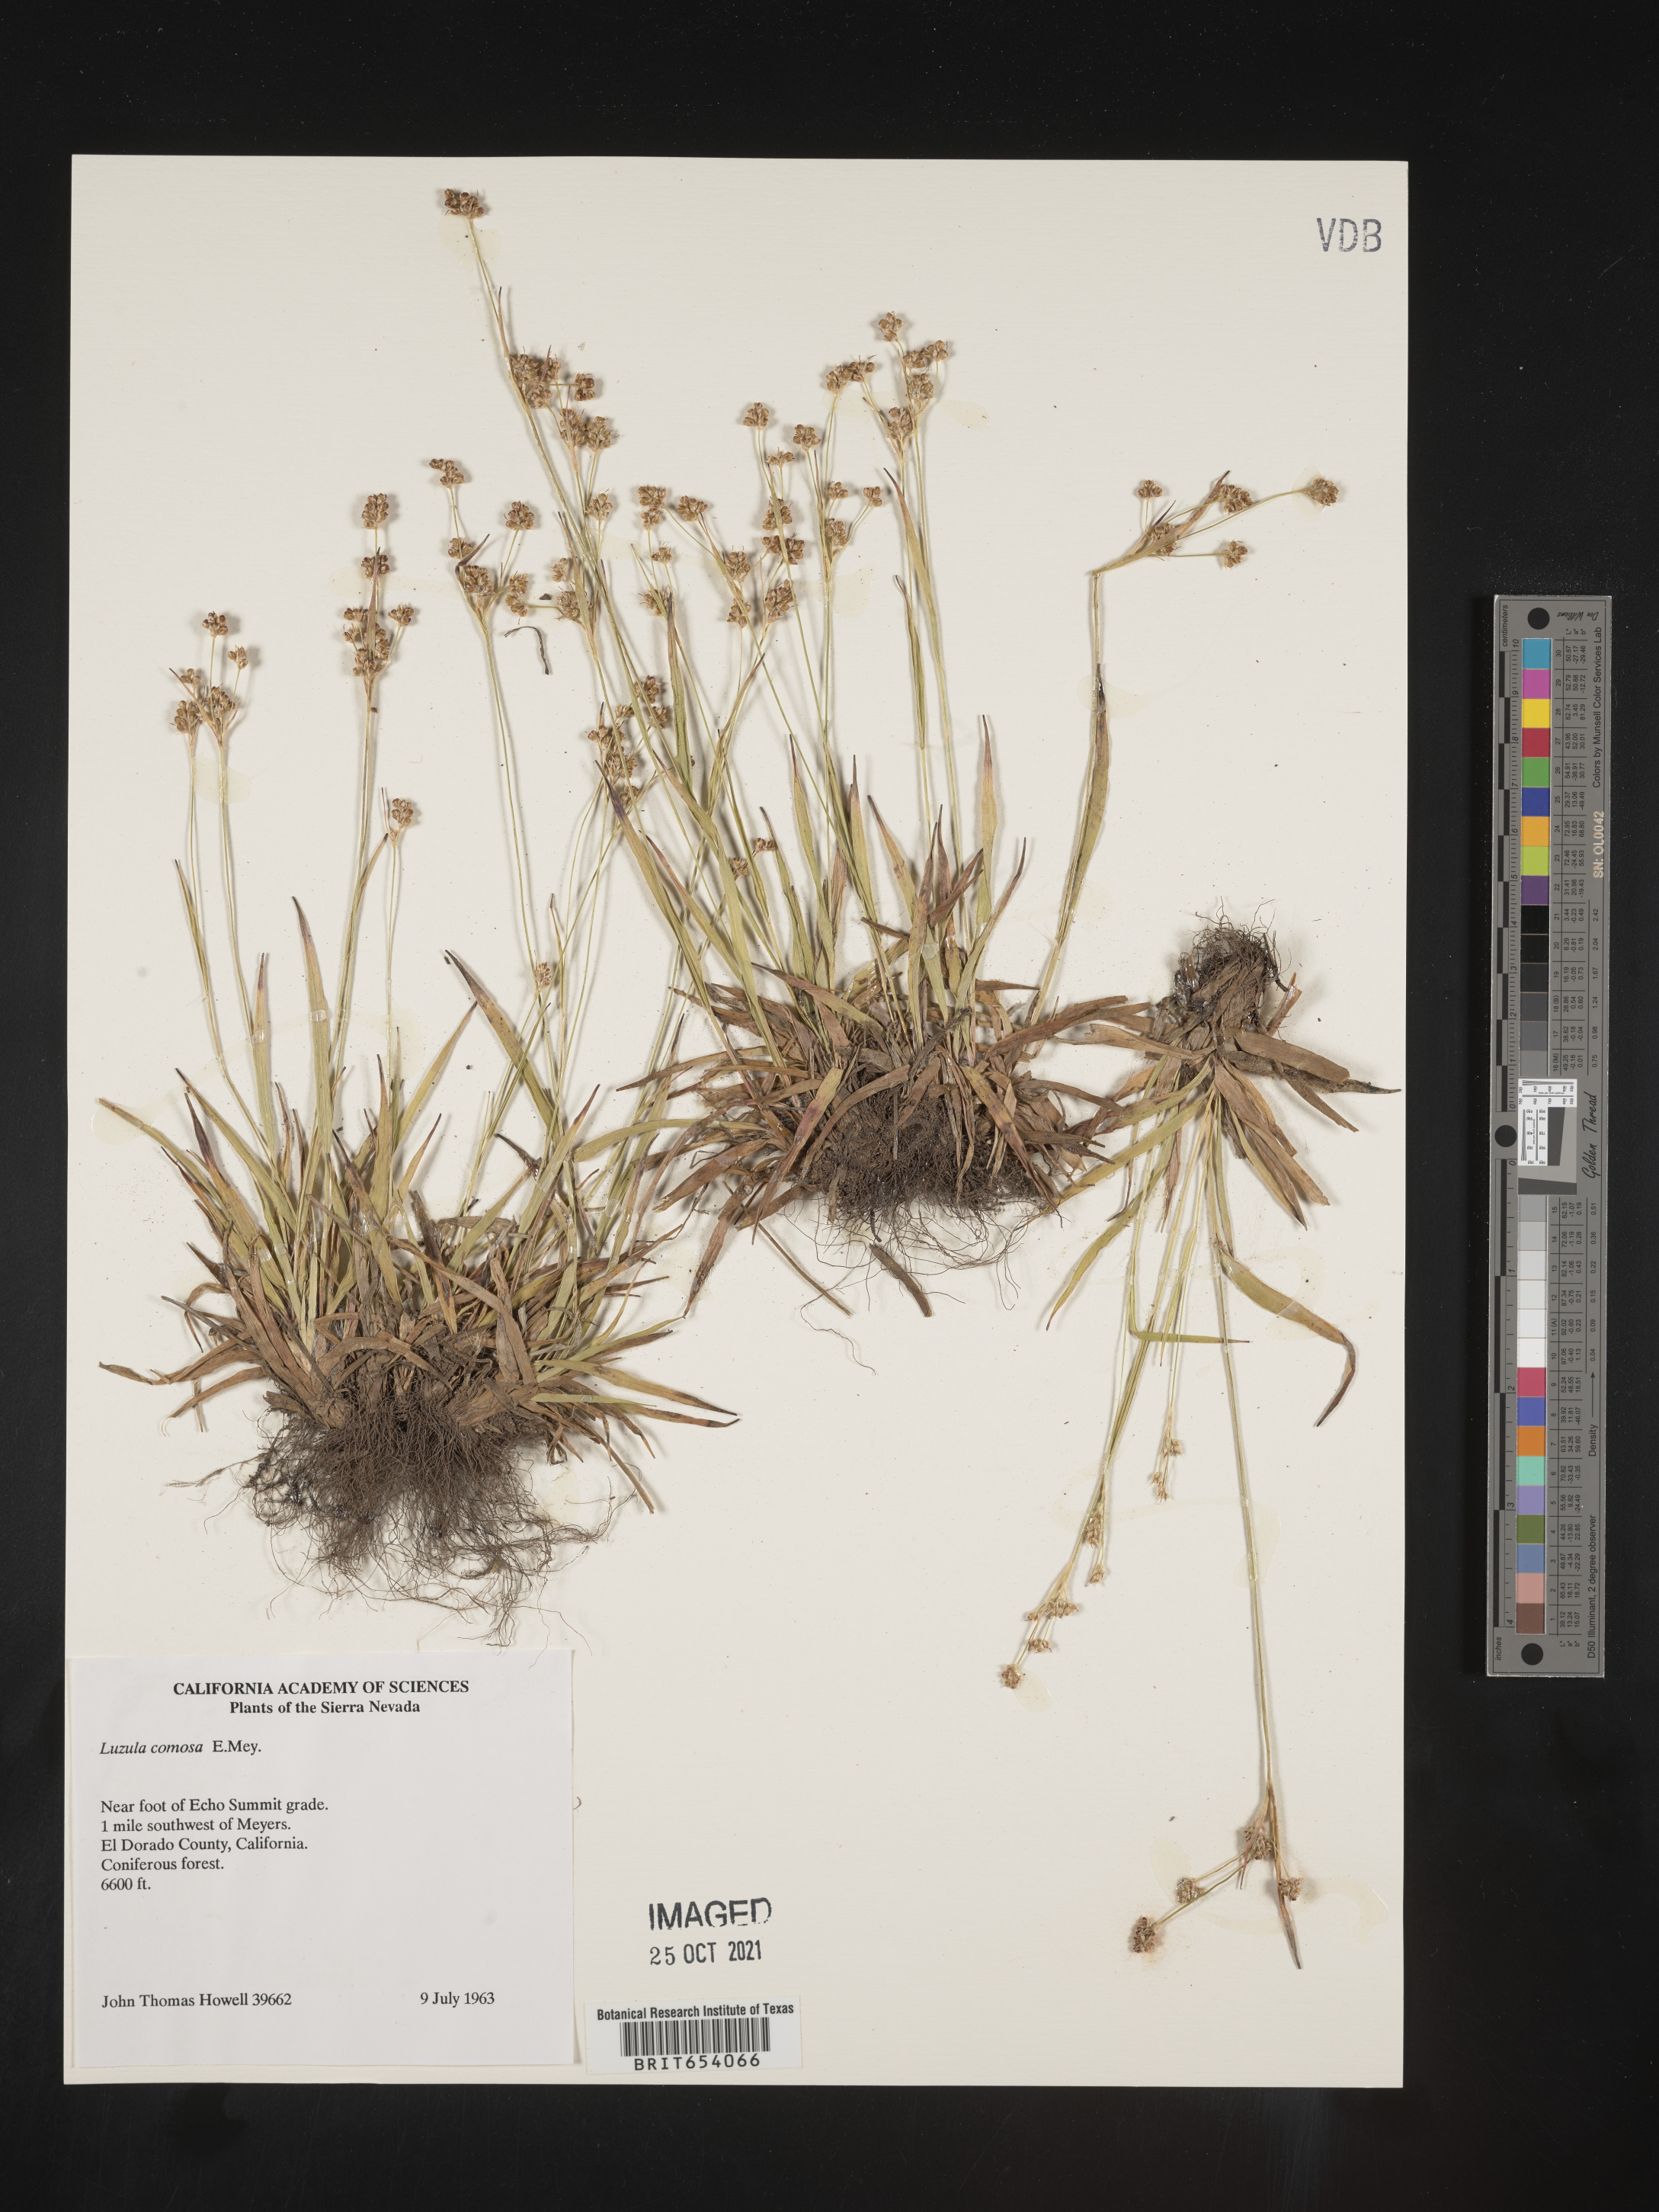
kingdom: Plantae
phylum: Tracheophyta
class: Liliopsida
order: Poales
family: Juncaceae
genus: Luzula
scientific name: Luzula comosa
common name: Pacific woodrush
